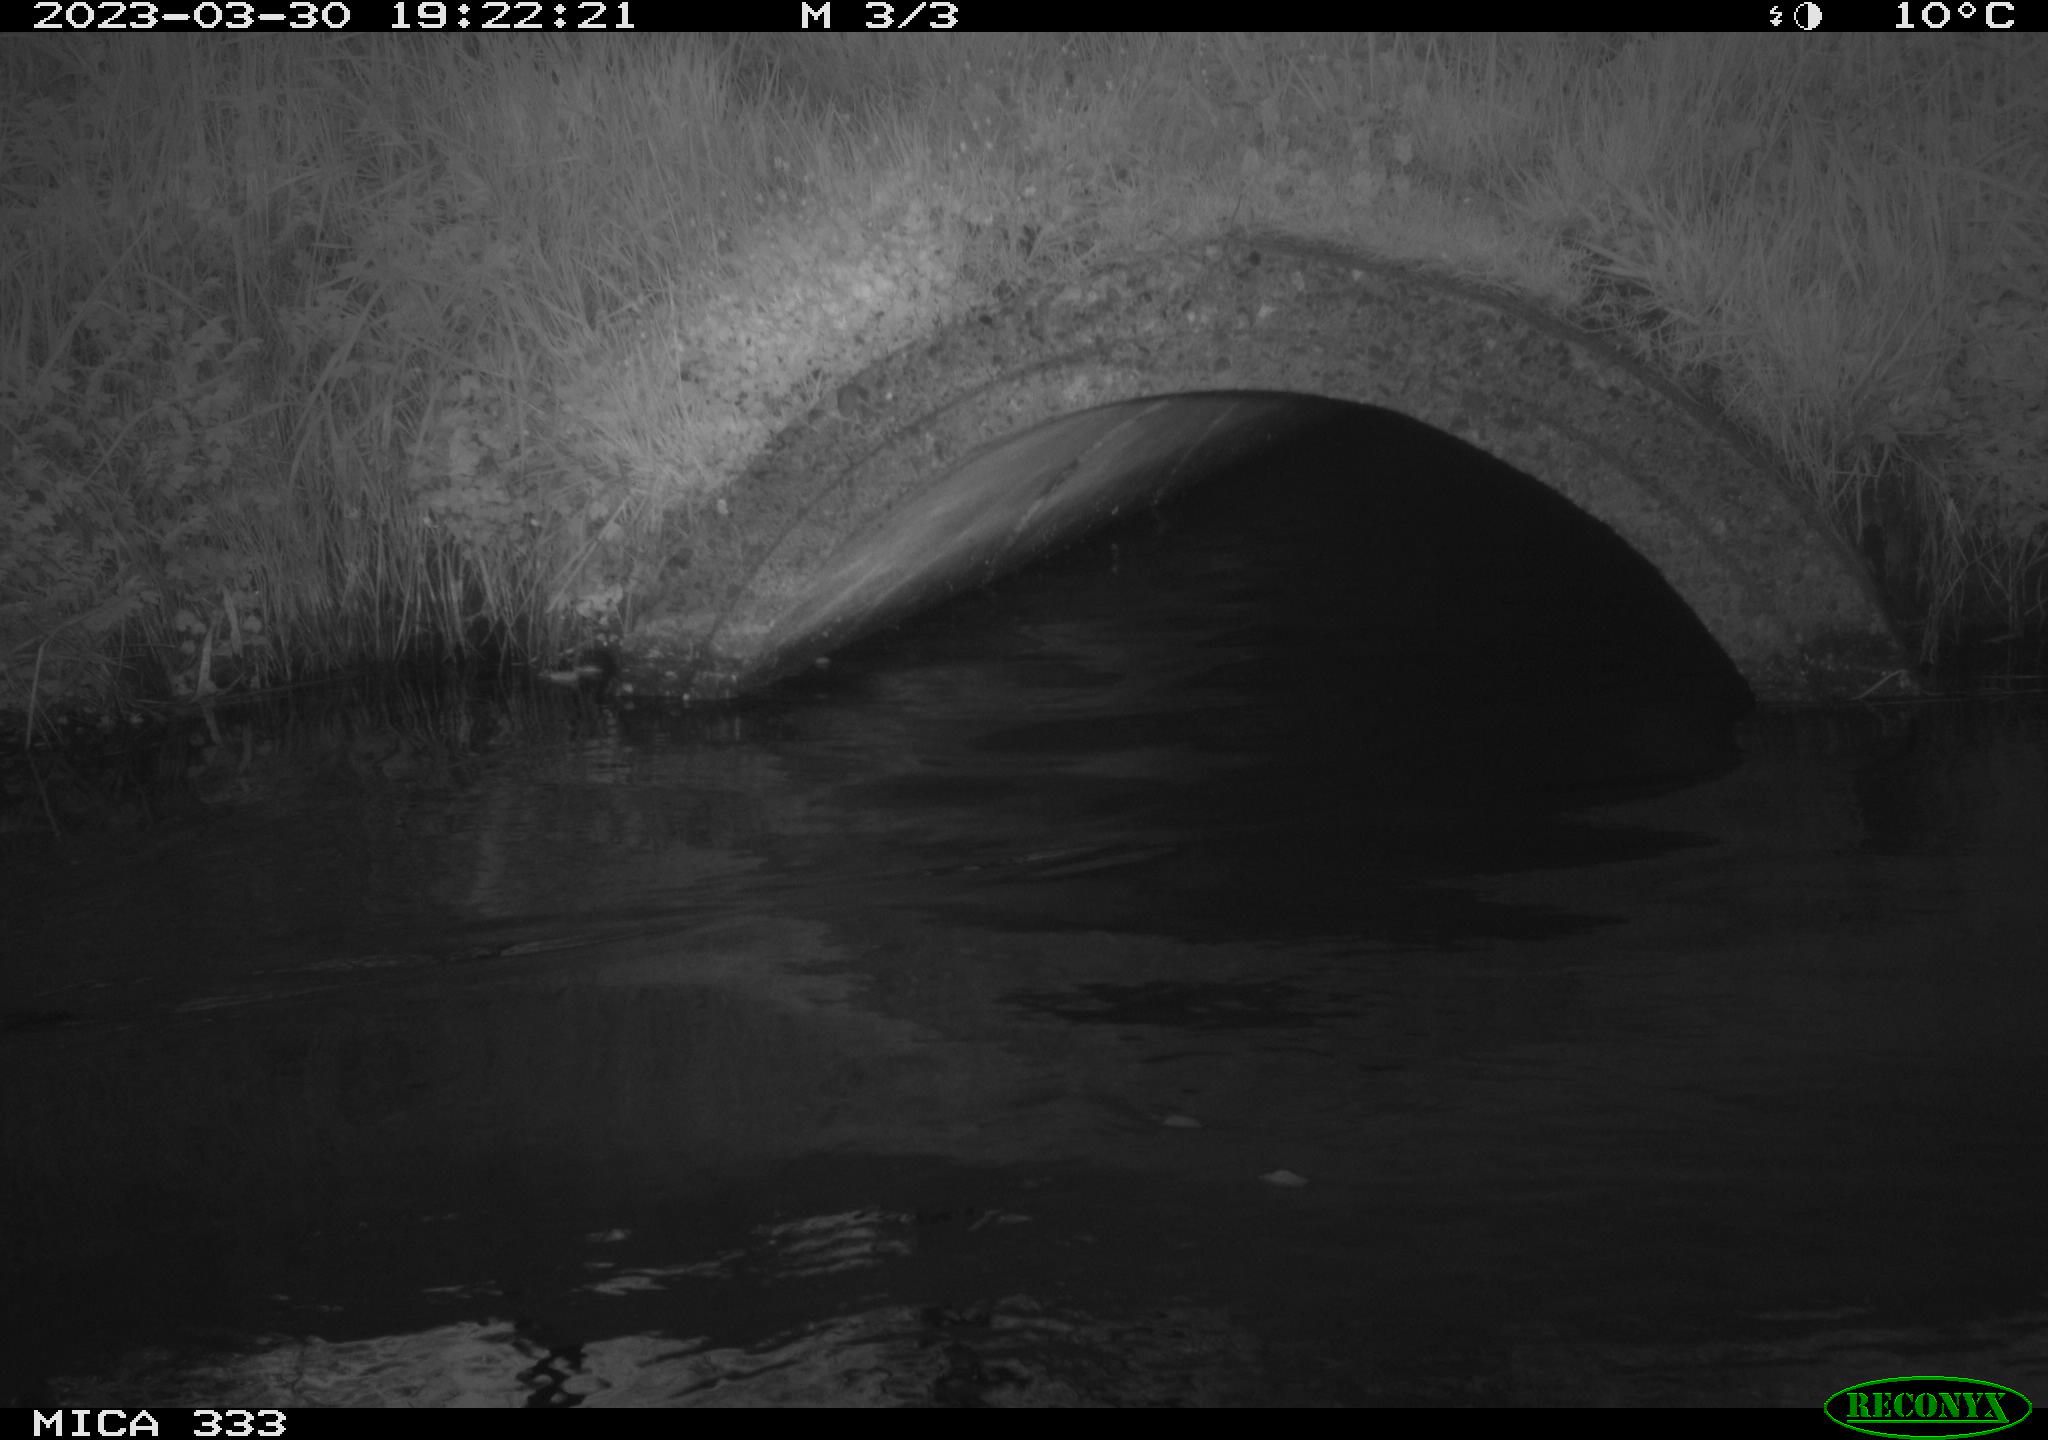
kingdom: Animalia
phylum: Chordata
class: Aves
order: Anseriformes
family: Anatidae
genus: Anas
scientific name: Anas
